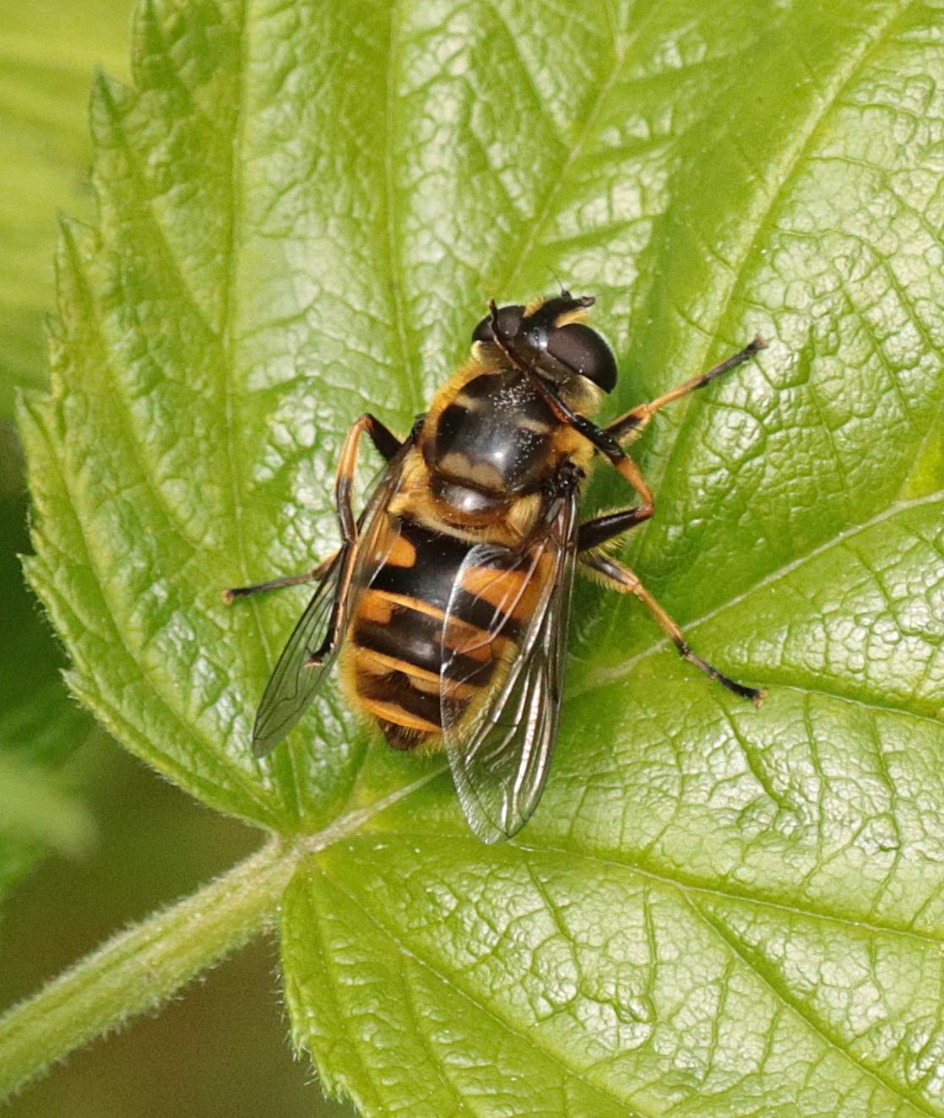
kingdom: Animalia
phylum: Arthropoda
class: Insecta
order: Diptera
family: Syrphidae
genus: Myathropa
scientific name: Myathropa florea
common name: Dødningehoved-svirreflue
